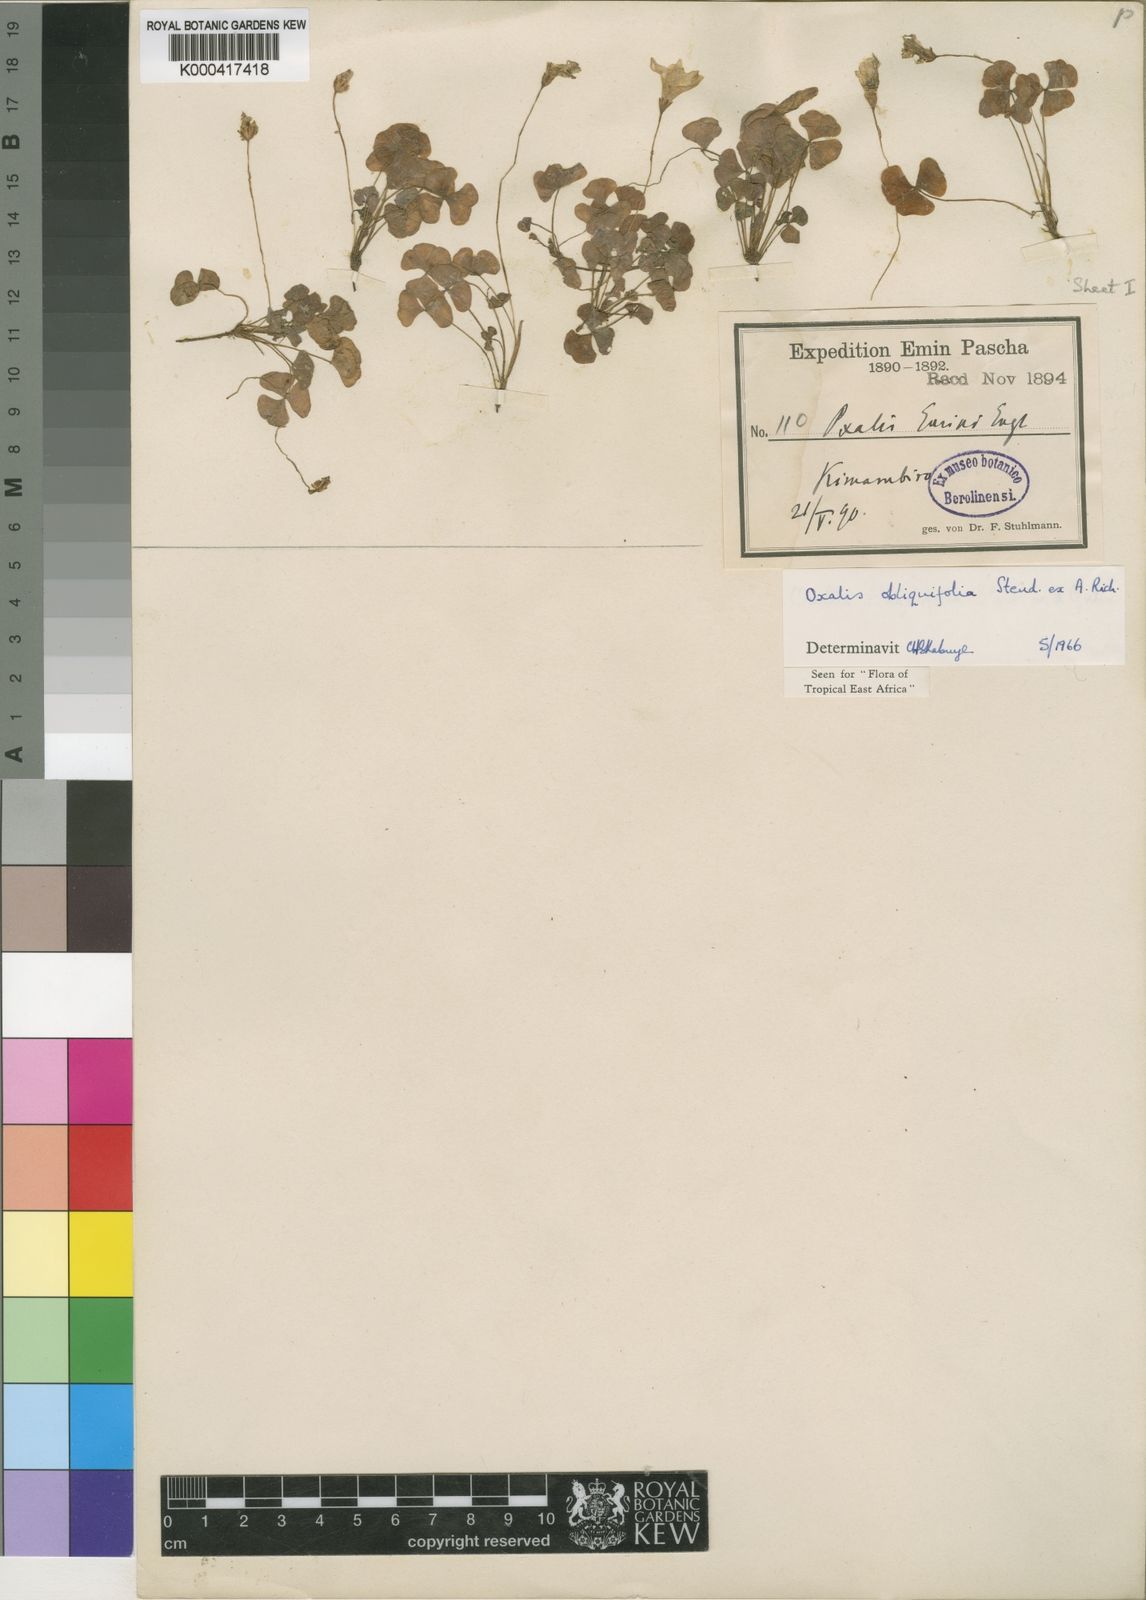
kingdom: Plantae
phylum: Tracheophyta
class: Magnoliopsida
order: Oxalidales
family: Oxalidaceae
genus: Oxalis
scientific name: Oxalis obliquifolia
